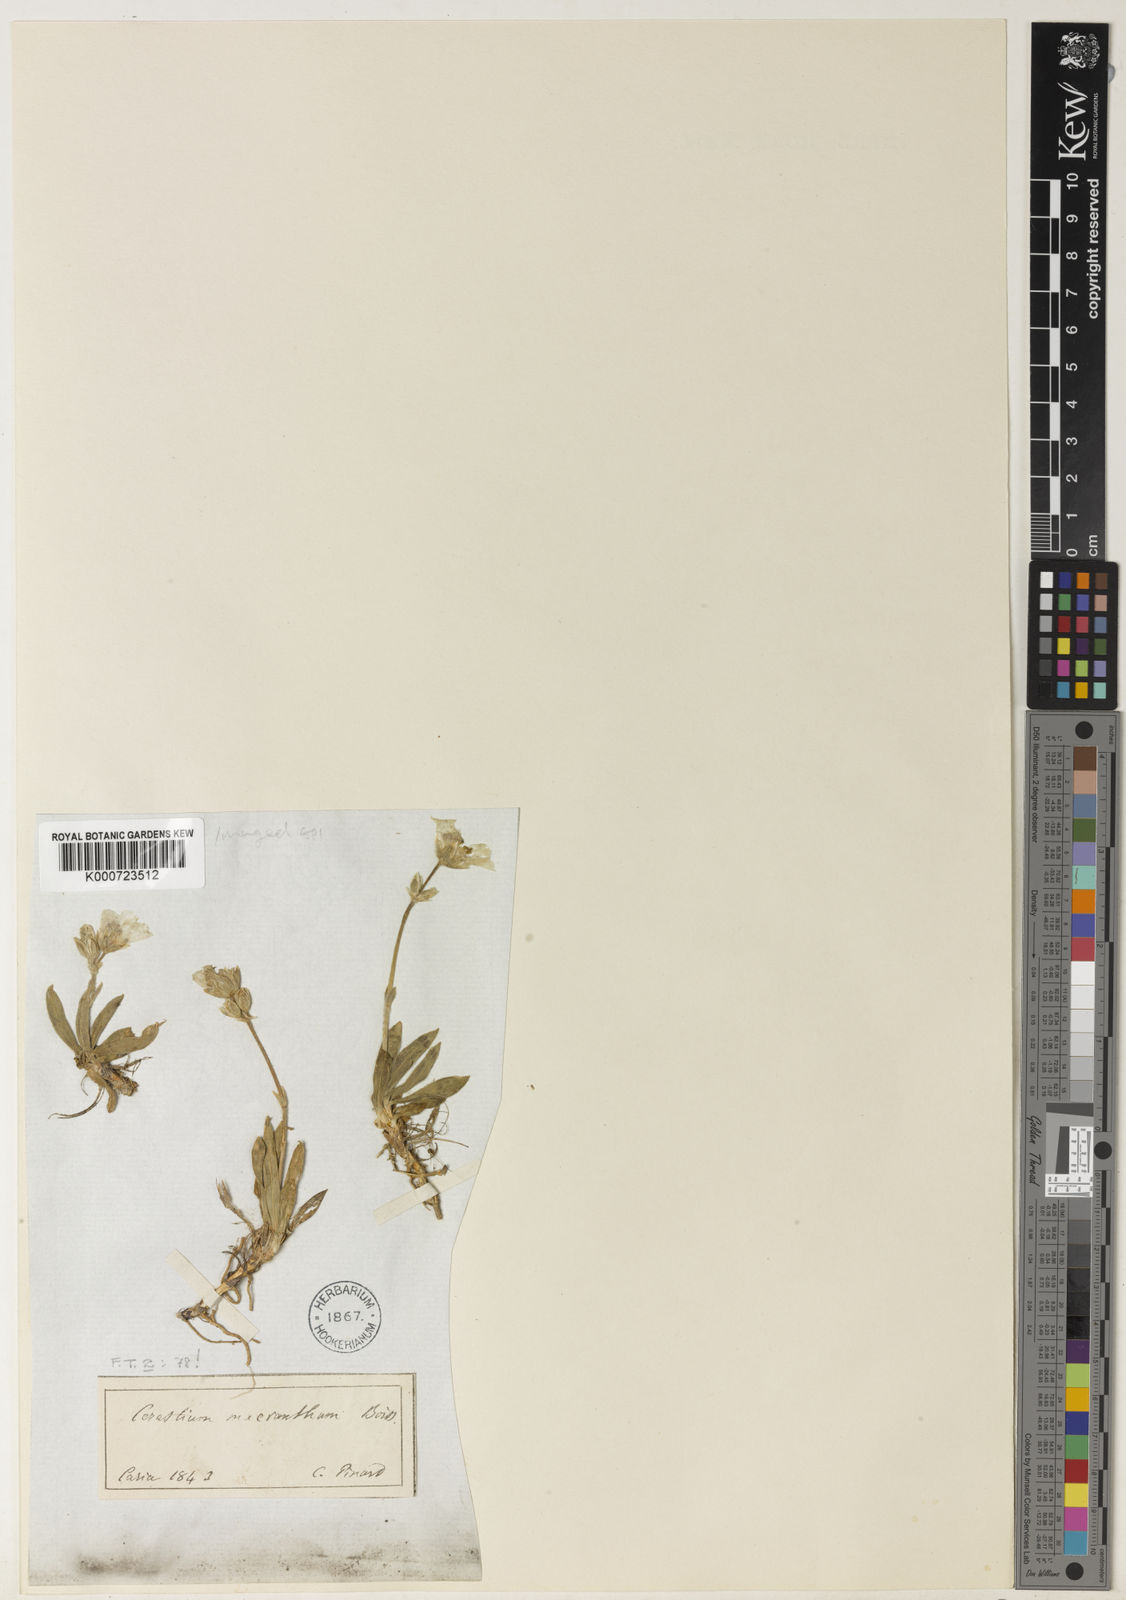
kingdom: Plantae
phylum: Tracheophyta
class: Magnoliopsida
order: Caryophyllales
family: Caryophyllaceae
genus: Cerastium
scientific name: Cerastium macranthum
